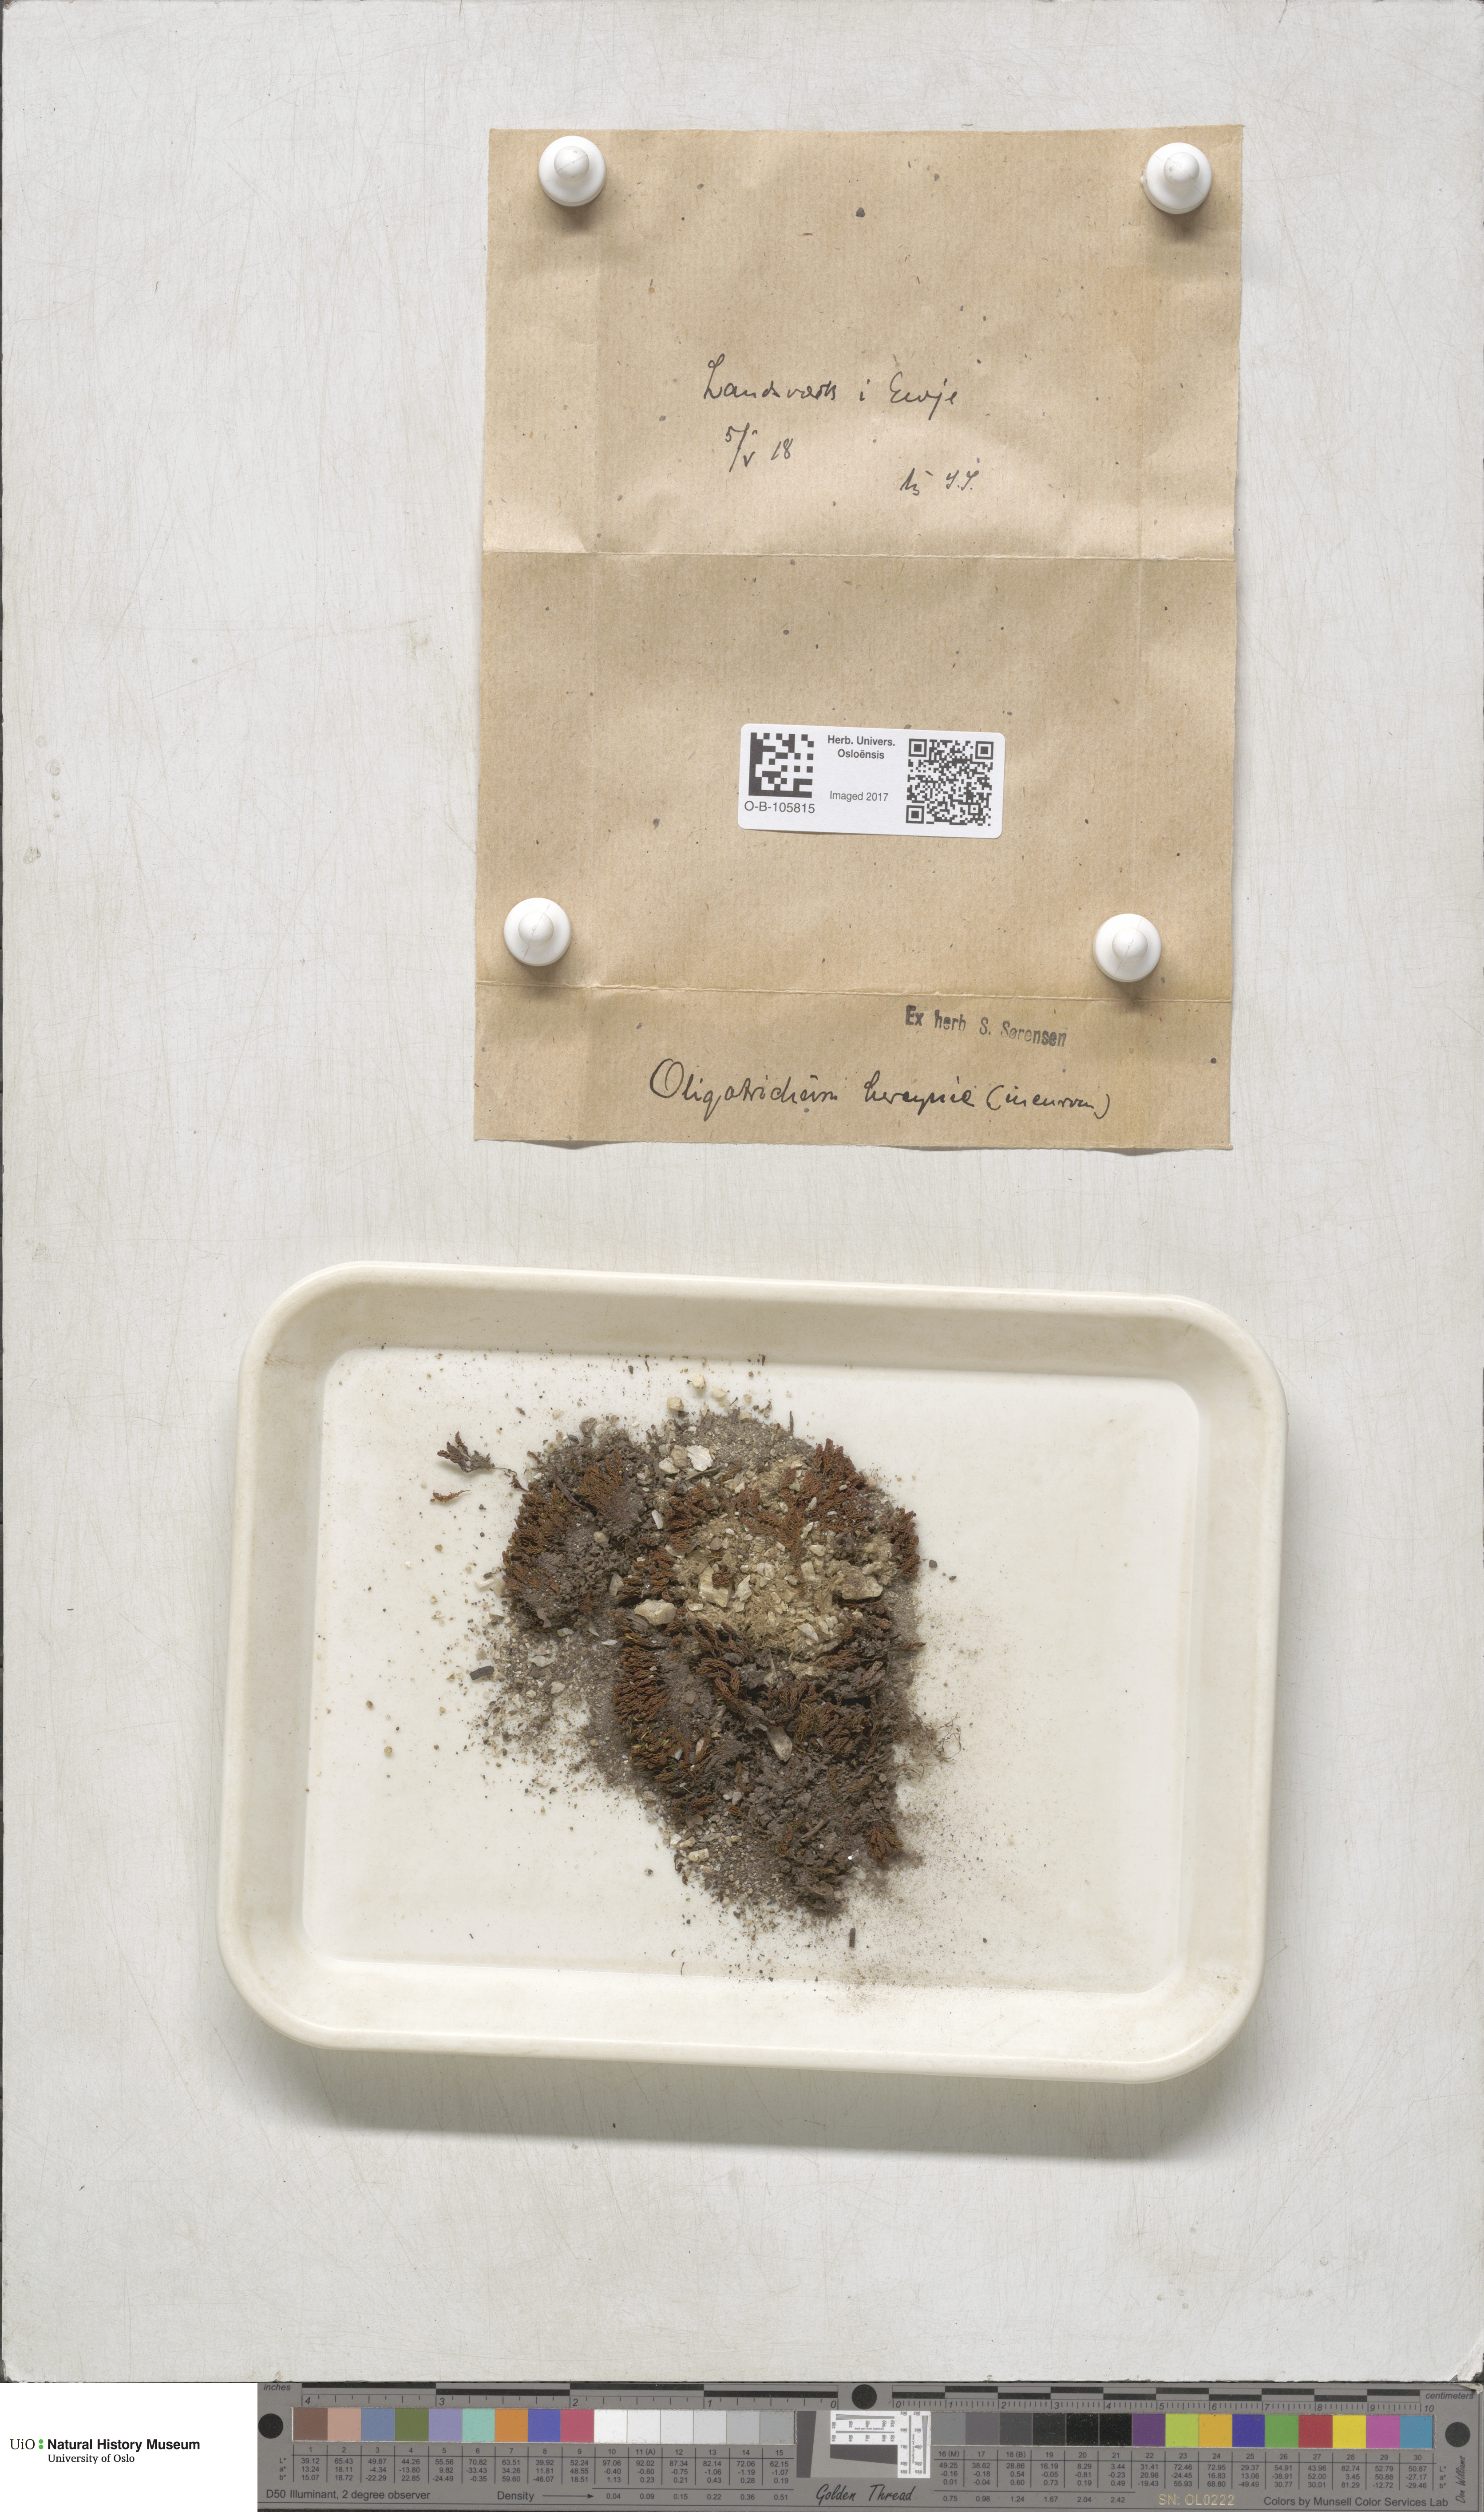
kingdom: Plantae
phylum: Bryophyta
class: Polytrichopsida
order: Polytrichales
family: Polytrichaceae
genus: Oligotrichum
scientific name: Oligotrichum hercynicum
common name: Hercynian hair moss
